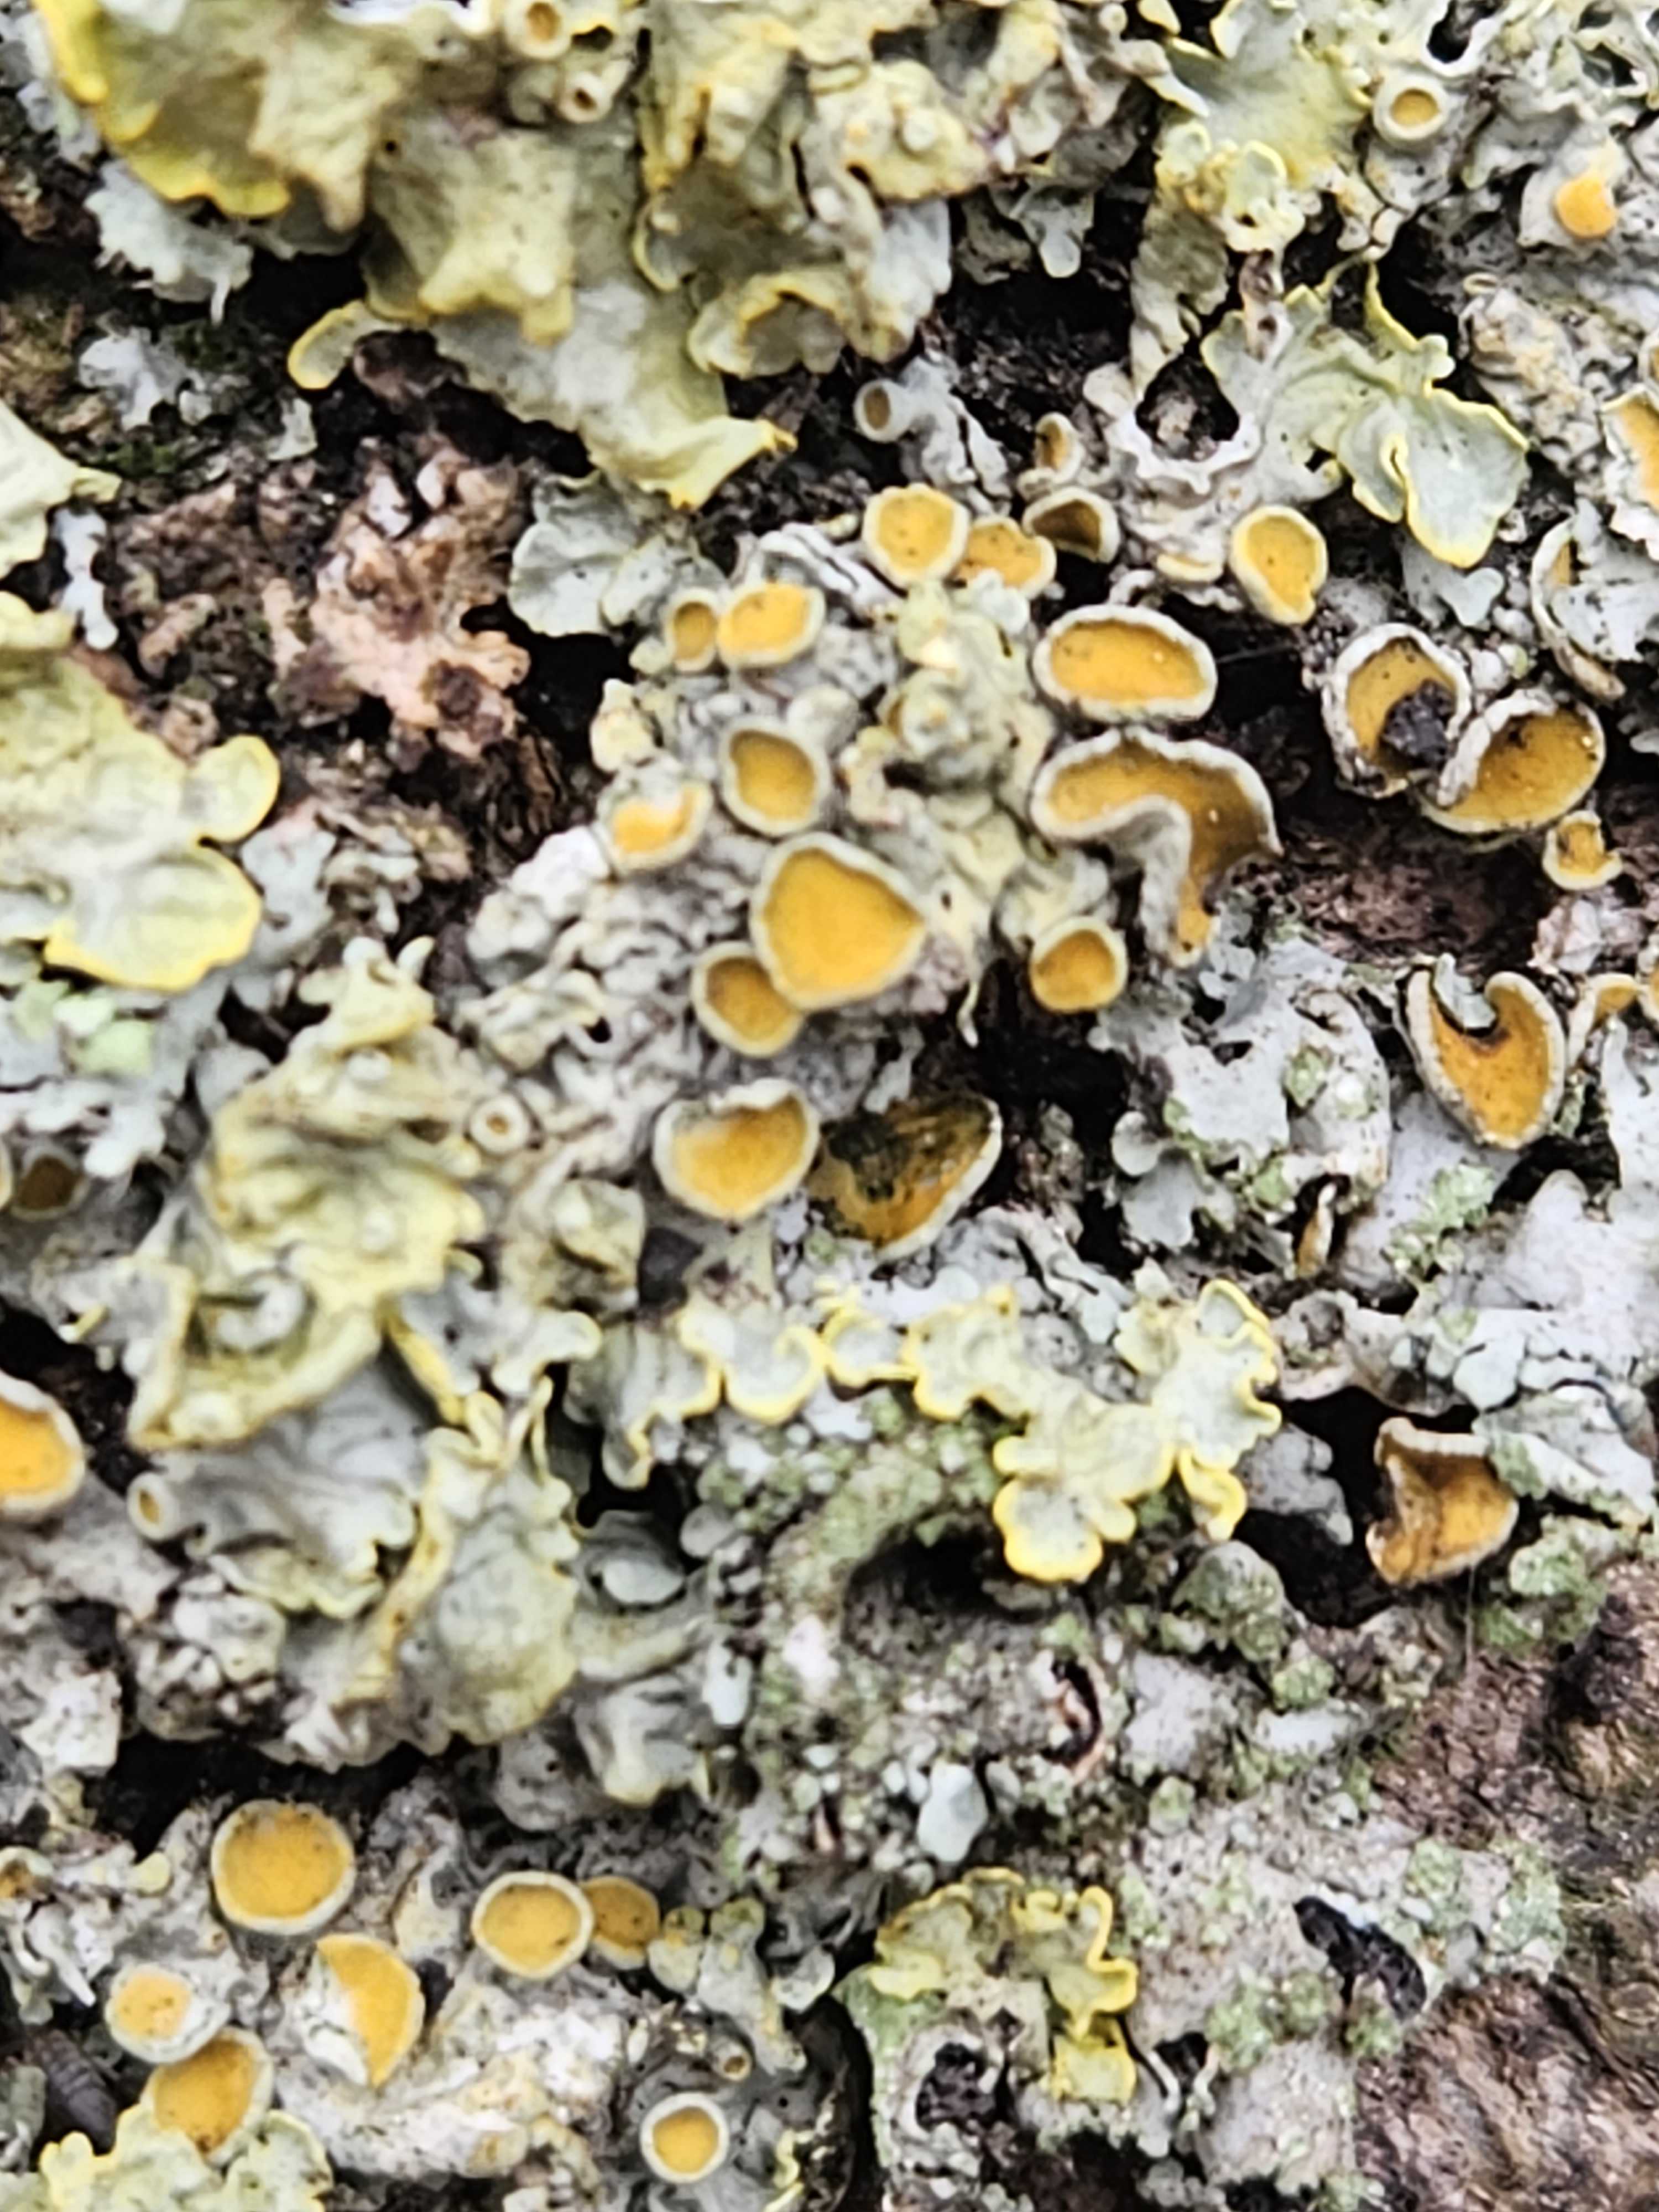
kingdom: Fungi
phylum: Ascomycota
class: Lecanoromycetes
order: Teloschistales
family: Teloschistaceae
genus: Xanthoria
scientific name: Xanthoria parietina
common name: almindelig væggelav
